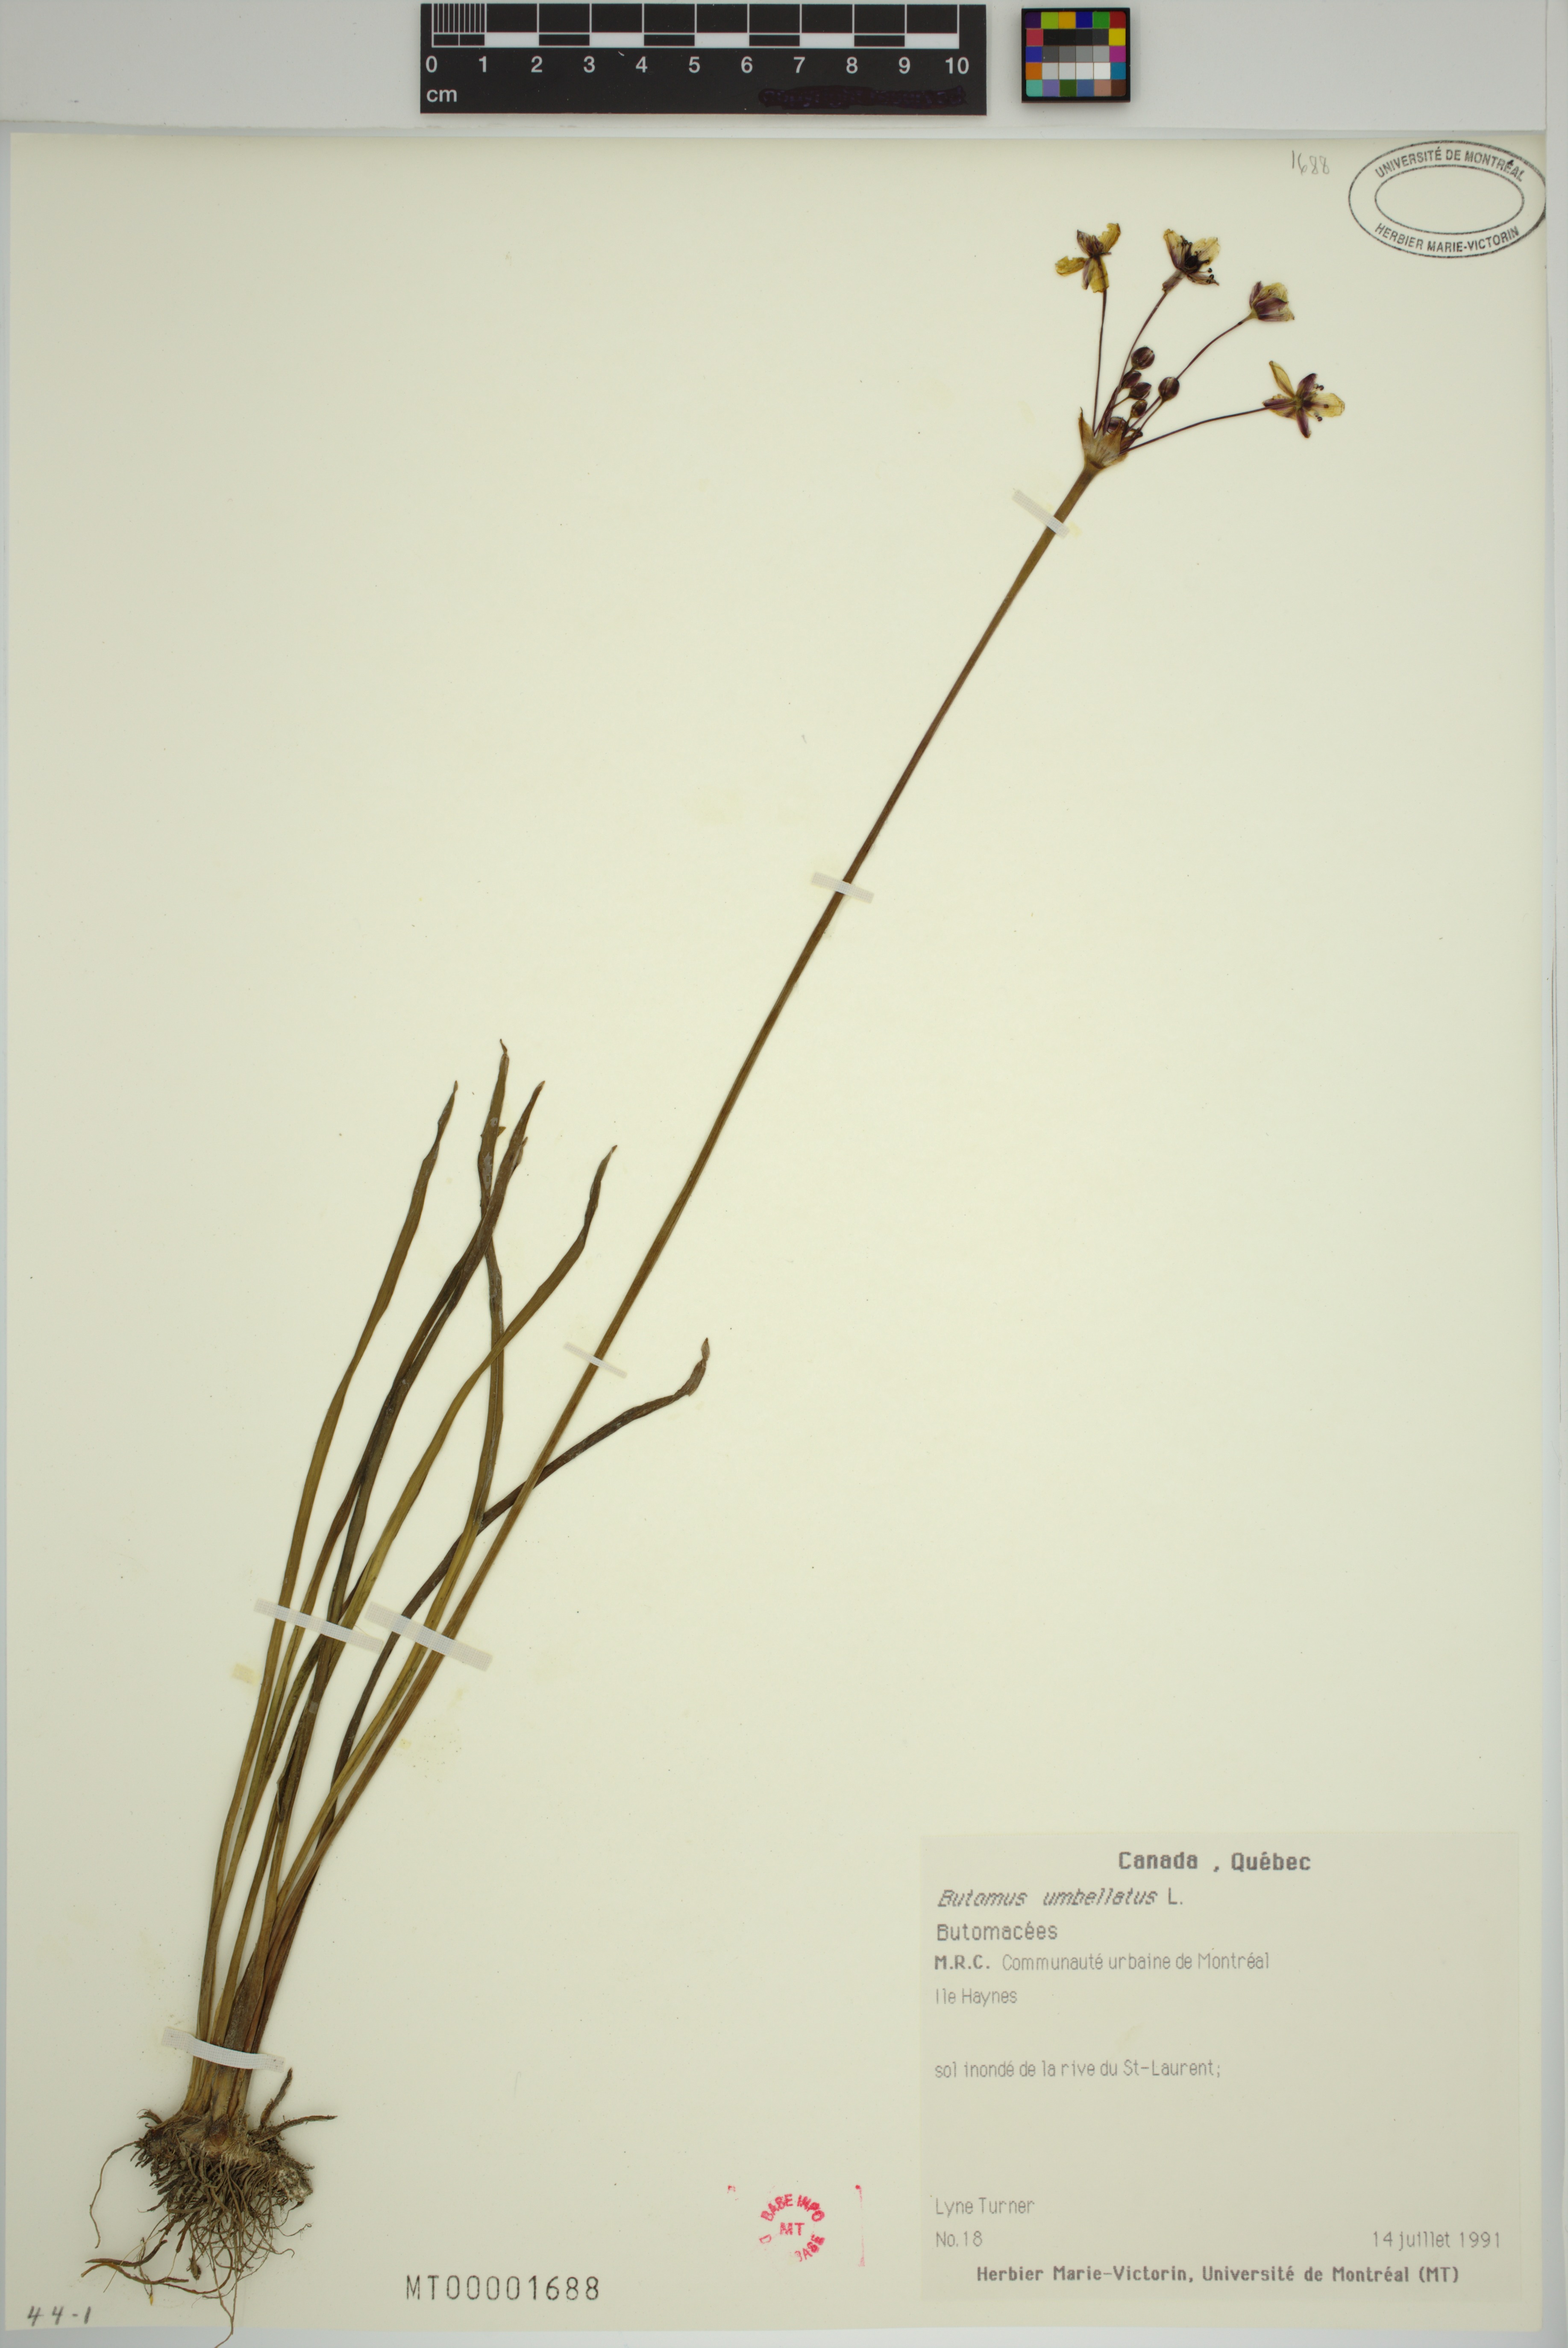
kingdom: Plantae
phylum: Tracheophyta
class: Liliopsida
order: Alismatales
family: Butomaceae
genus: Butomus
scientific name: Butomus umbellatus
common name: Flowering-rush
